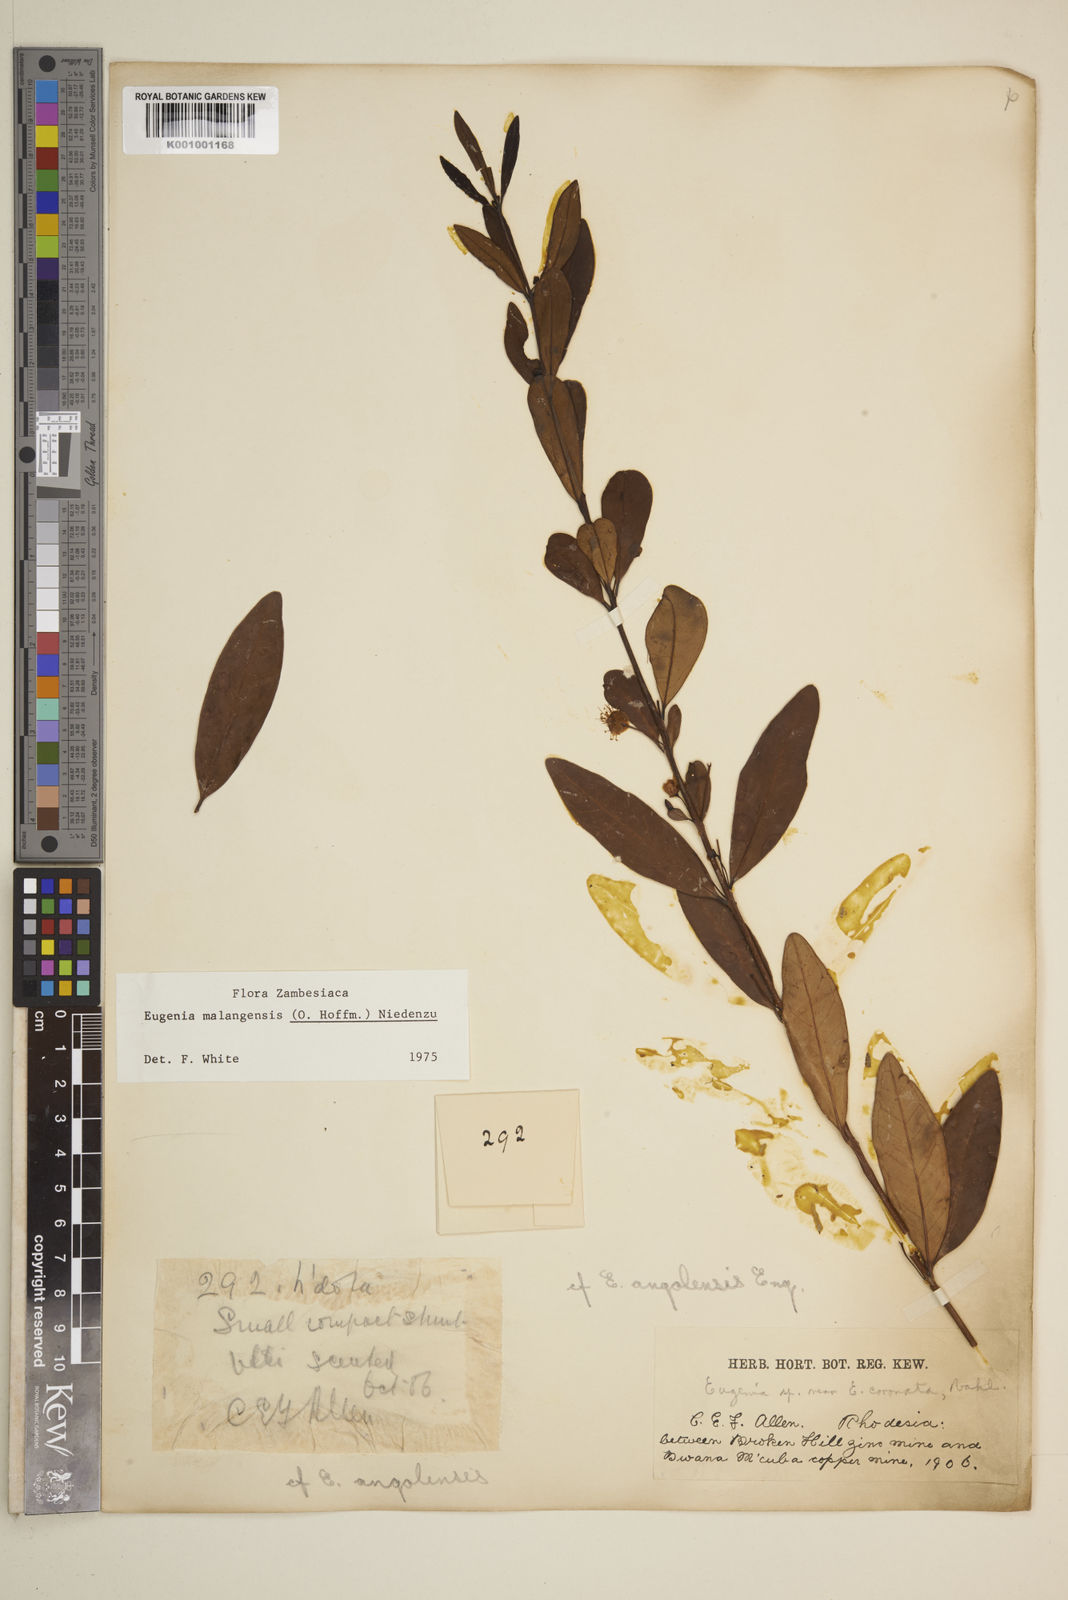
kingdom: Plantae
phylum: Tracheophyta
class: Magnoliopsida
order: Myrtales
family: Myrtaceae
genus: Eugenia
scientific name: Eugenia malangensis
